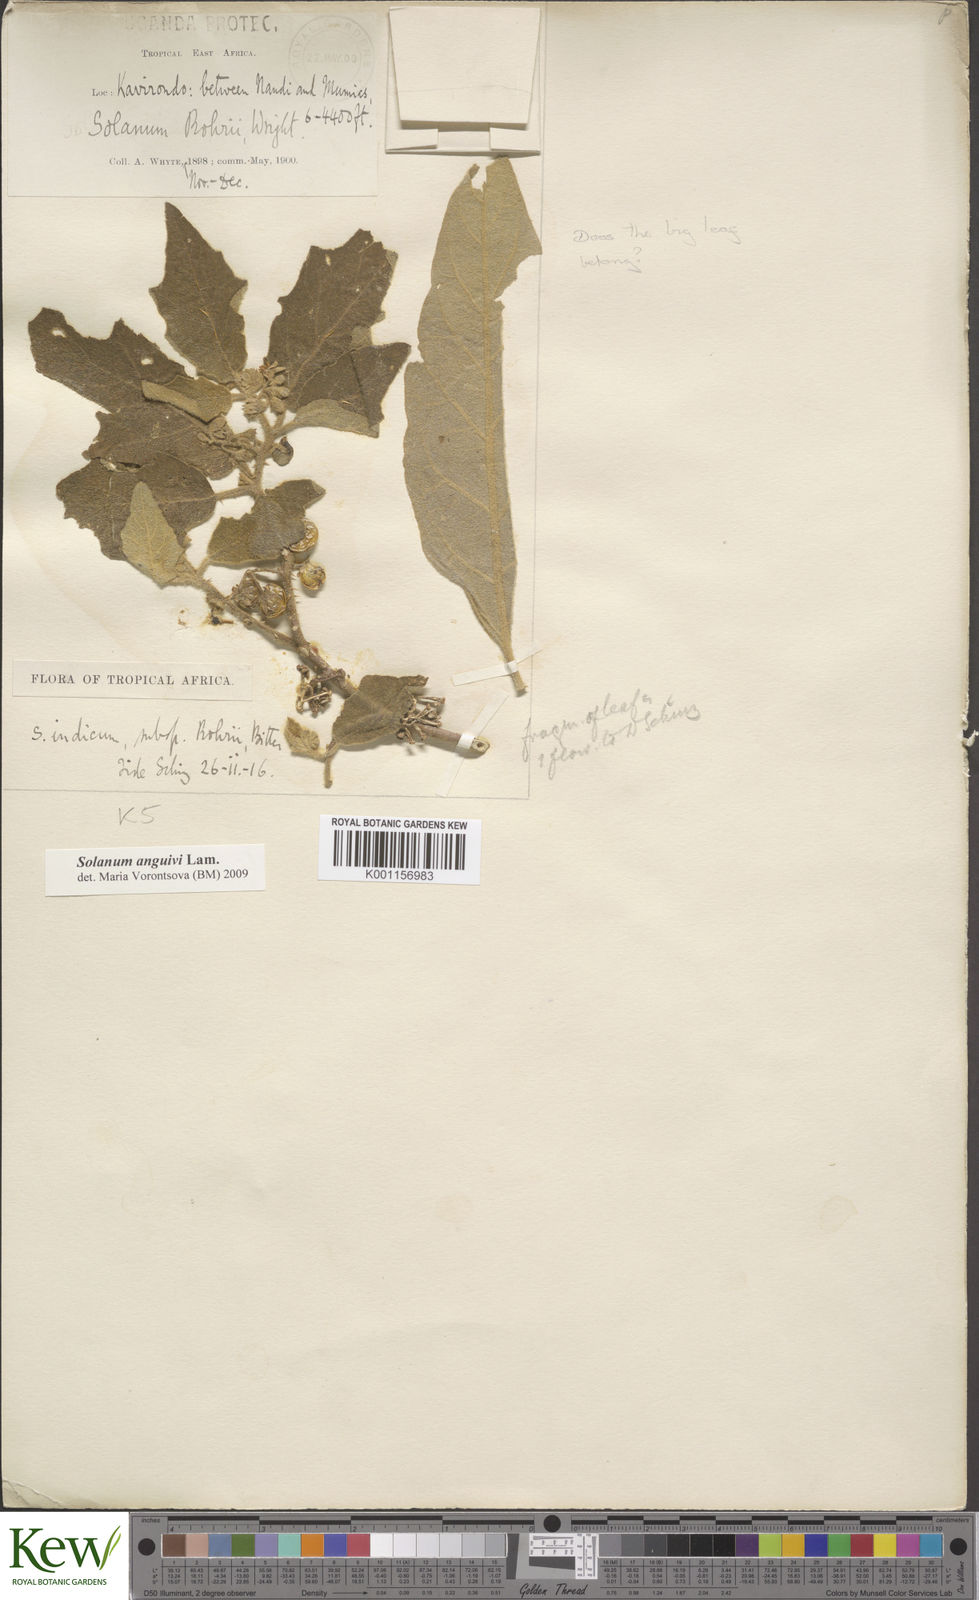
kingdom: Plantae
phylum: Tracheophyta
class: Magnoliopsida
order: Solanales
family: Solanaceae
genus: Solanum
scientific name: Solanum anguivi
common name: Forest bitterberry
